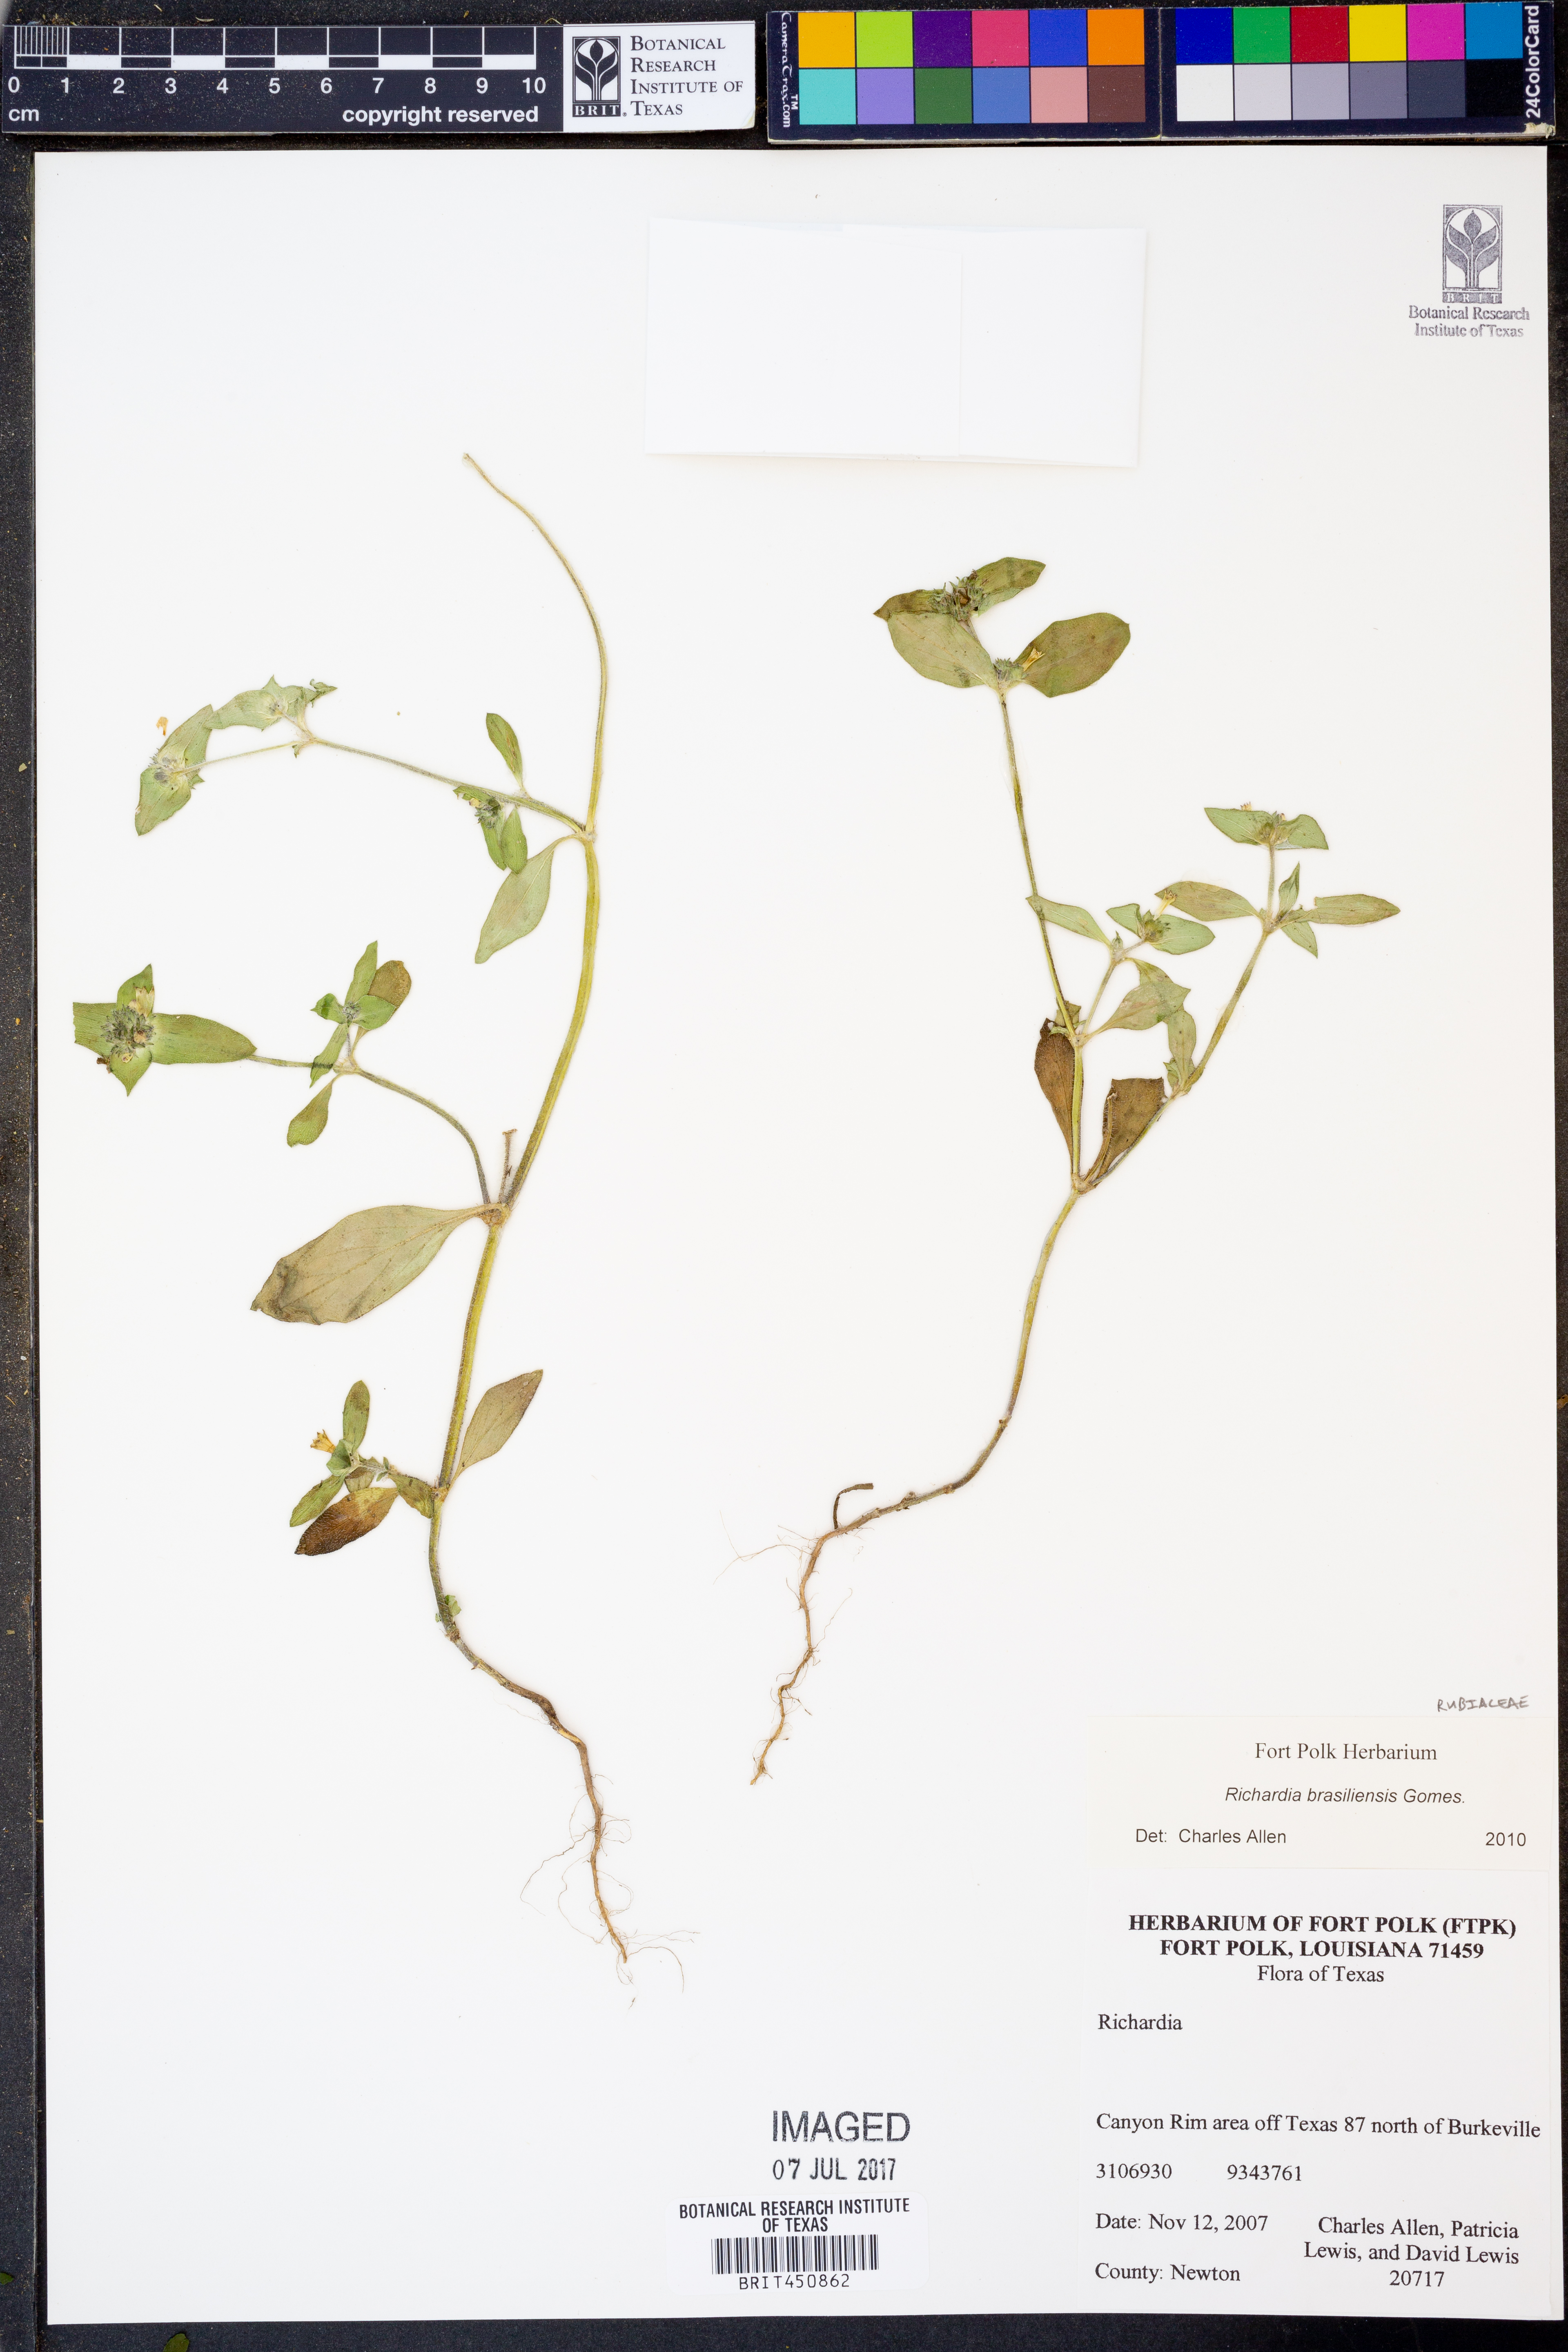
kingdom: Plantae
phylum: Tracheophyta
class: Magnoliopsida
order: Gentianales
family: Rubiaceae
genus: Richardia
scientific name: Richardia brasiliensis
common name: Tropical mexican clover
